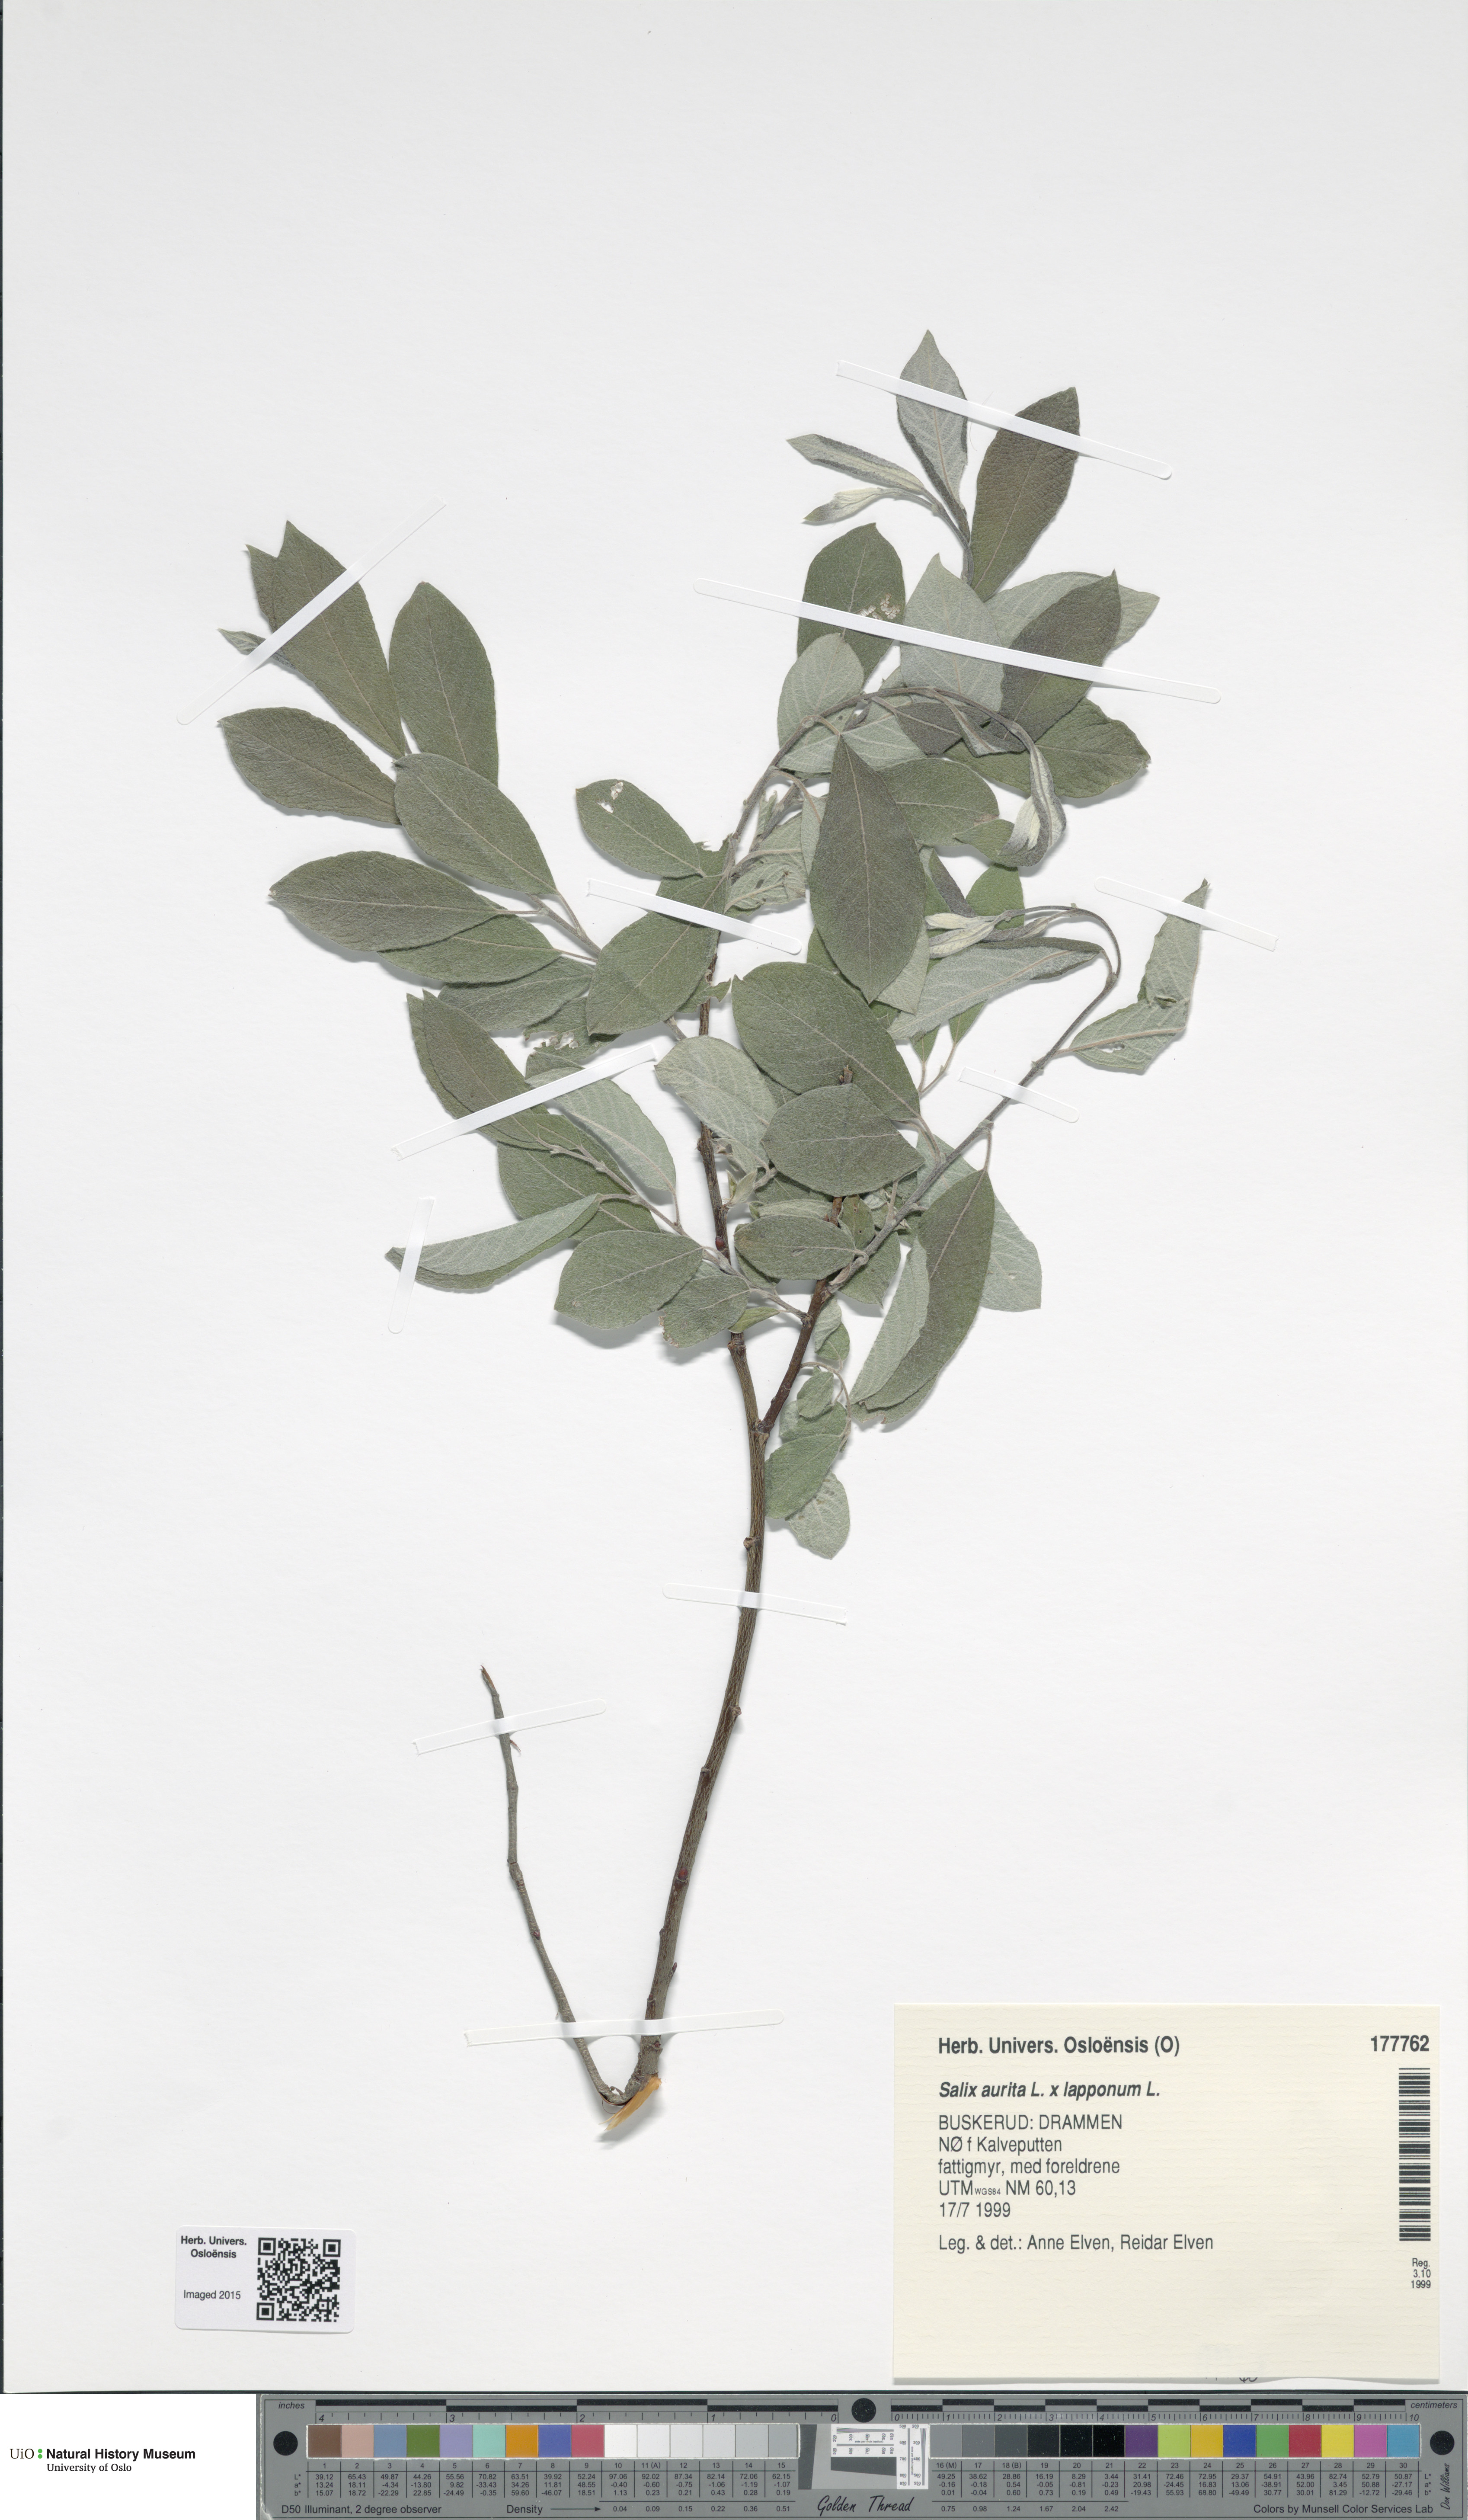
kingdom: Plantae
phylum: Tracheophyta
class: Magnoliopsida
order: Malpighiales
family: Salicaceae
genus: Salix
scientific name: Salix
